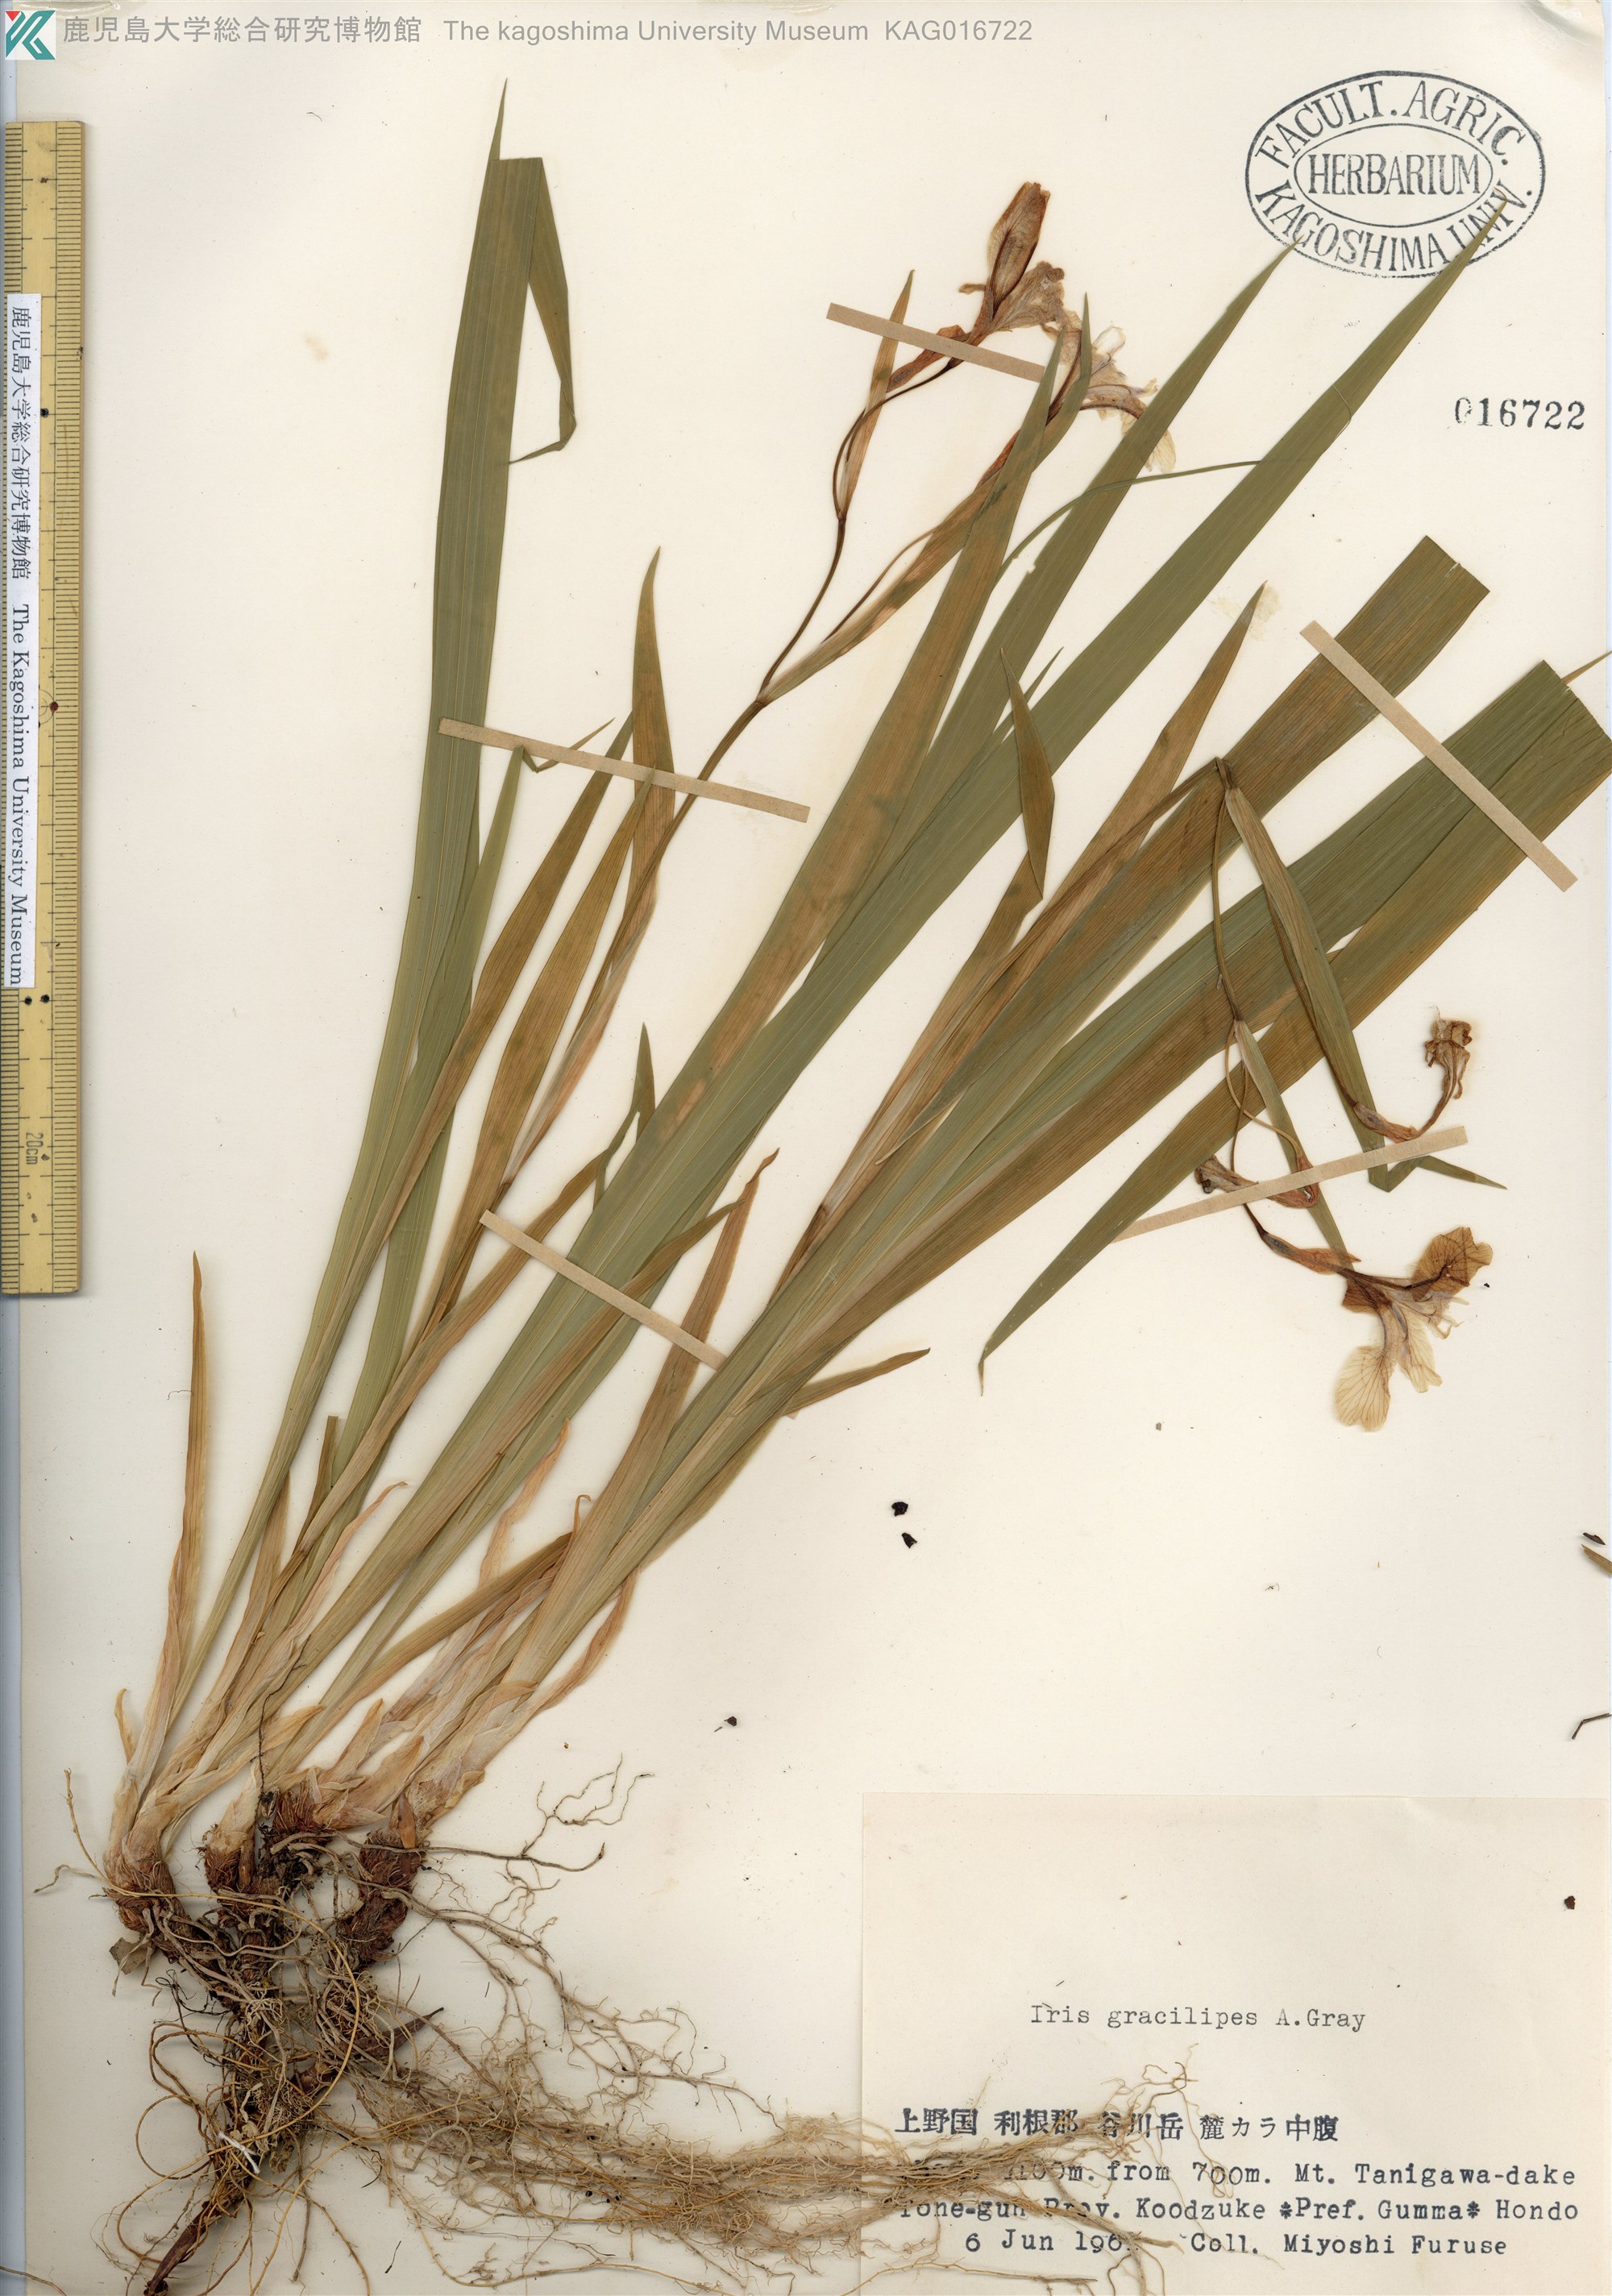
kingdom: Plantae
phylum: Tracheophyta
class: Liliopsida
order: Asparagales
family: Iridaceae
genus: Iris
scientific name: Iris gracilipes
